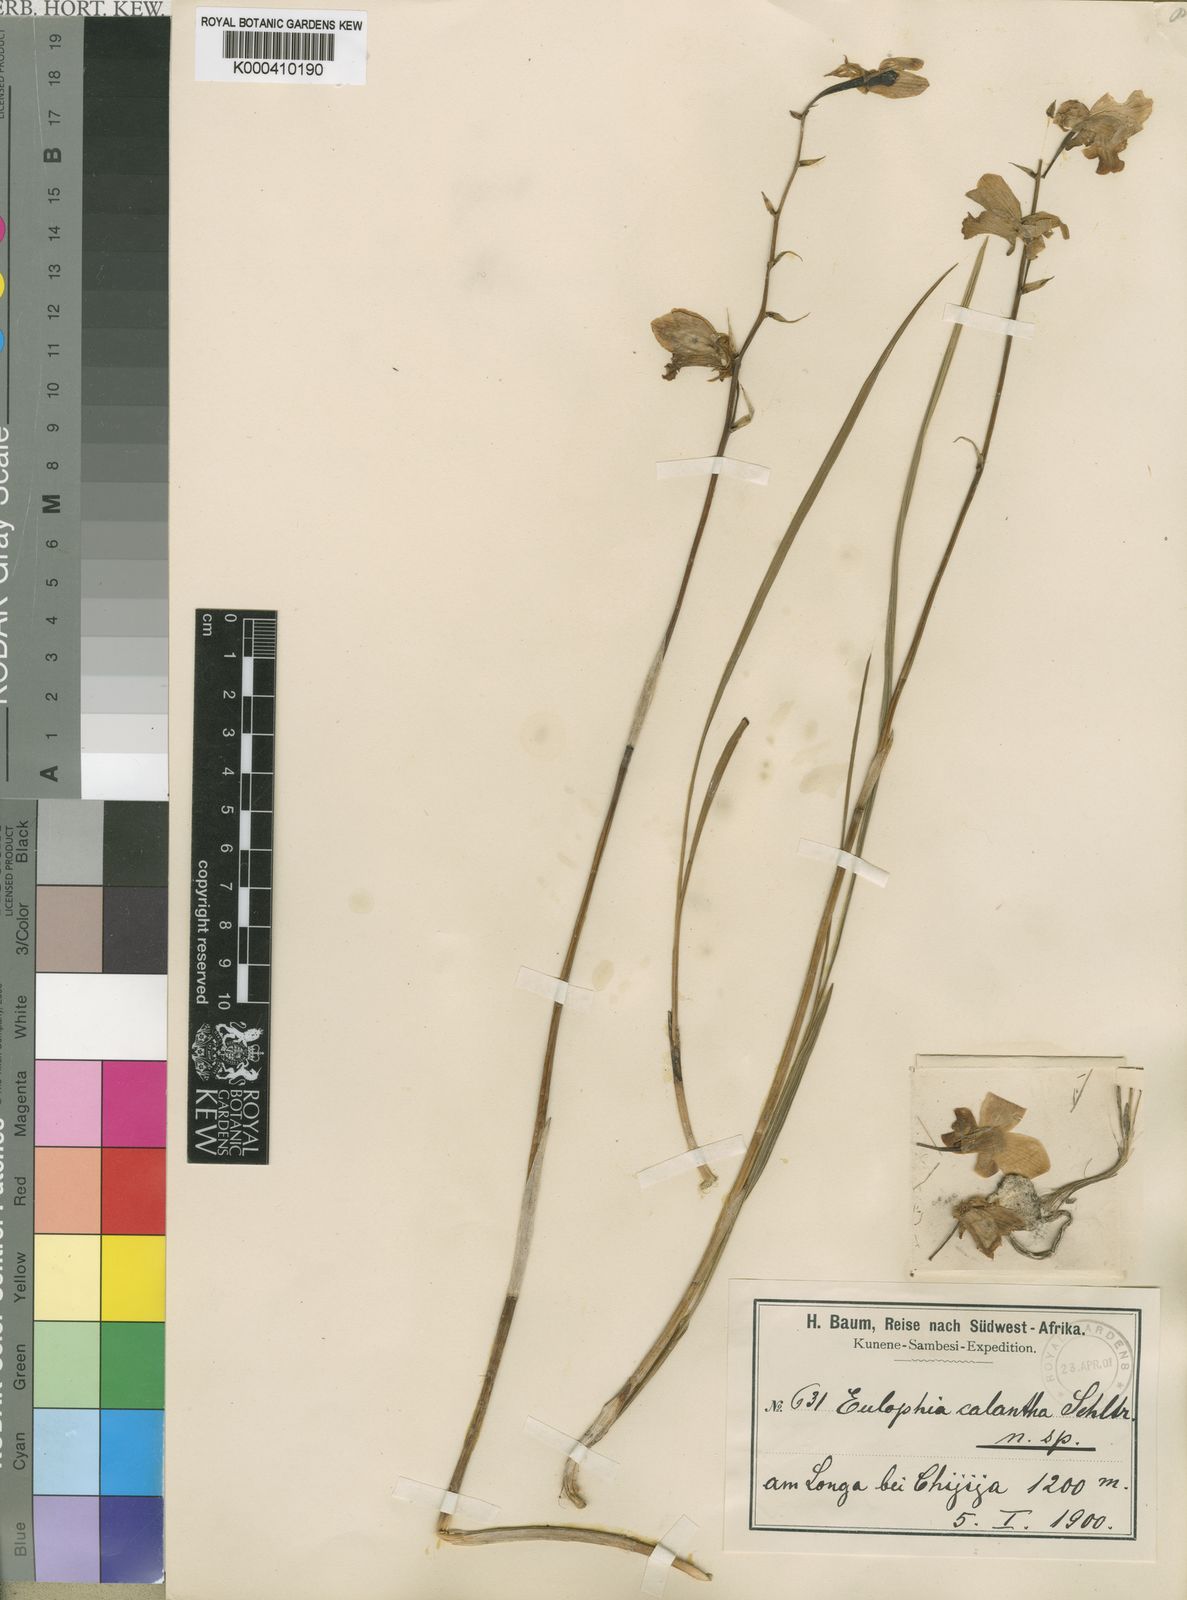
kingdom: Plantae
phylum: Tracheophyta
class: Liliopsida
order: Asparagales
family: Orchidaceae
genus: Eulophia
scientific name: Eulophia calantha
